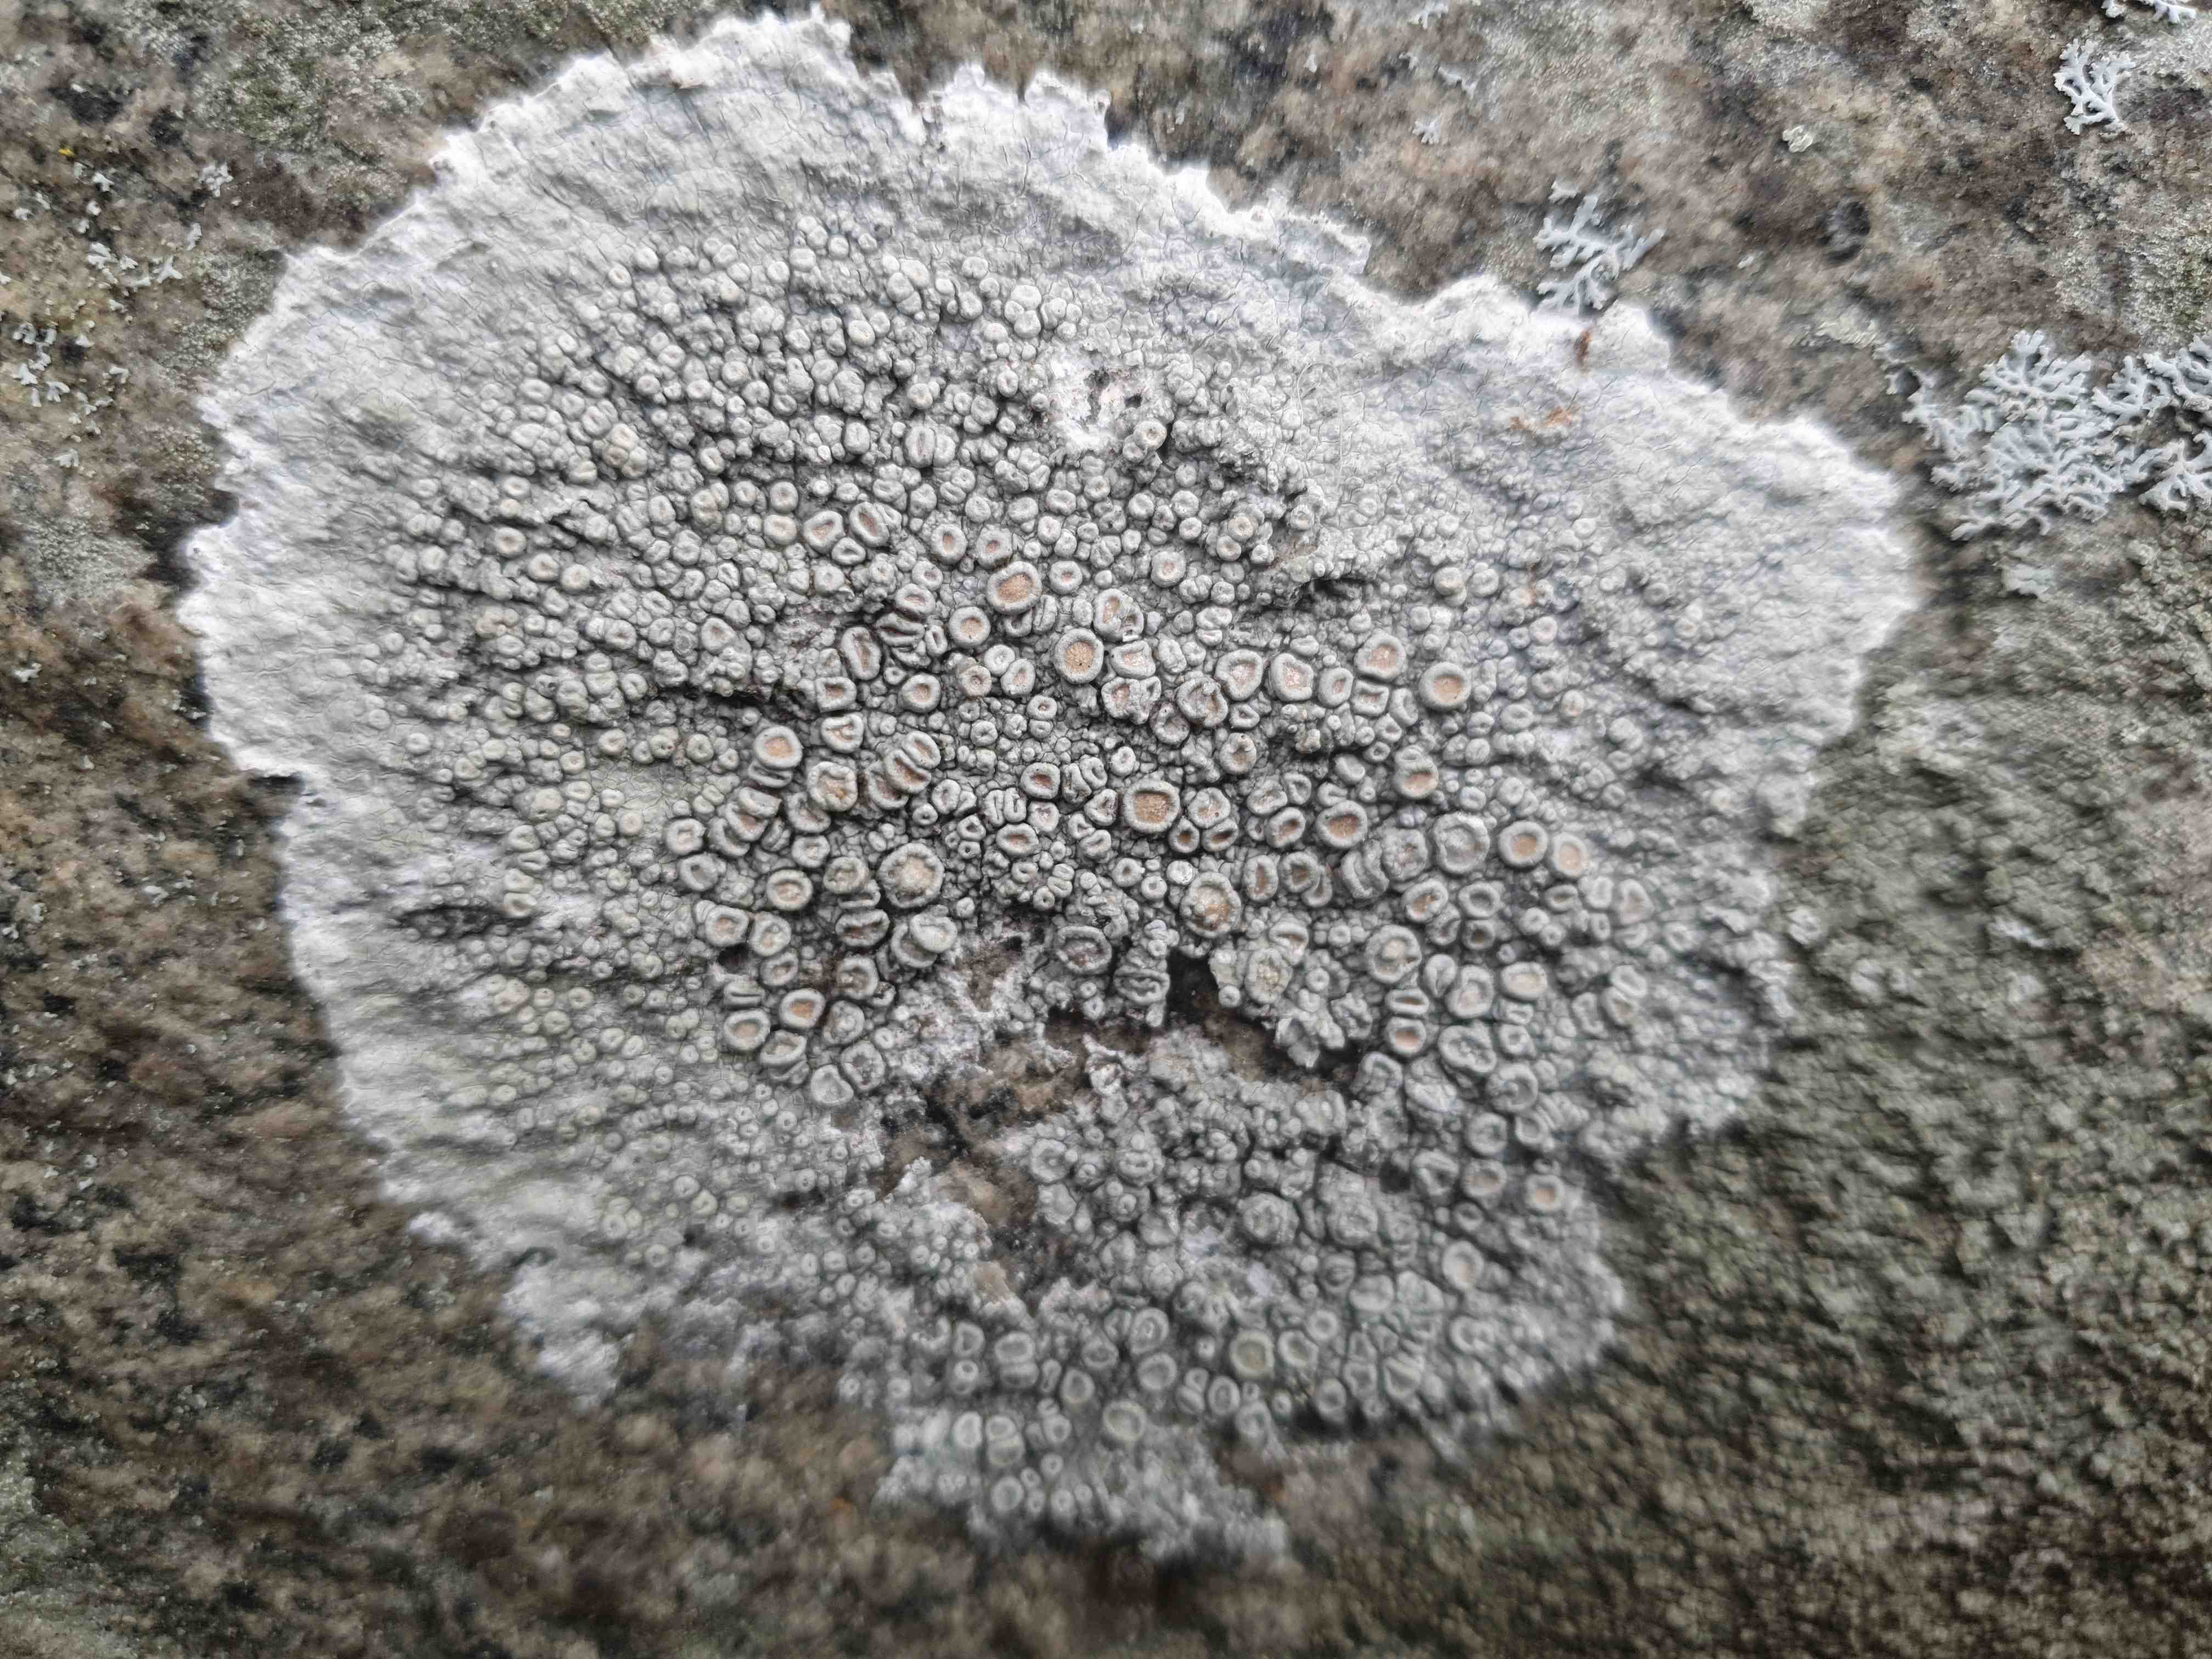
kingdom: Fungi
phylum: Ascomycota
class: Lecanoromycetes
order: Pertusariales
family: Ochrolechiaceae
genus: Ochrolechia
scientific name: Ochrolechia parella
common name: almindelig blegskivelav
